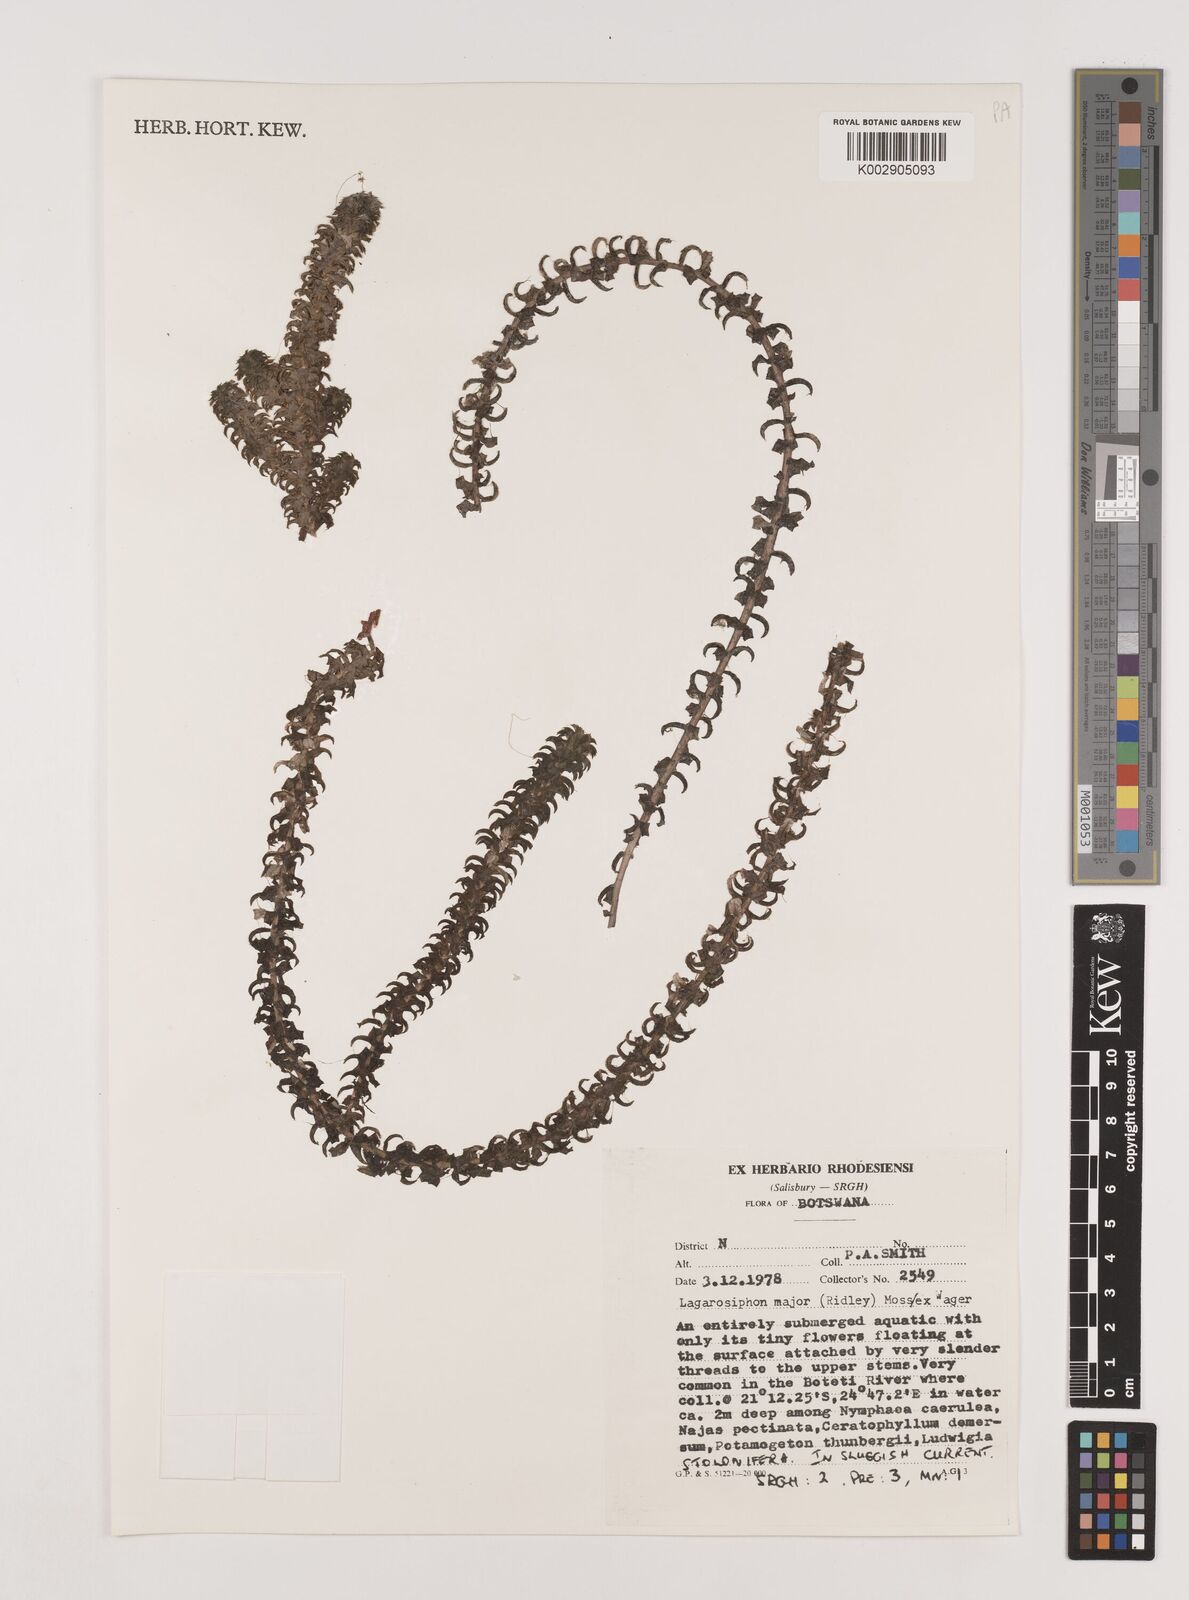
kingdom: Plantae
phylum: Tracheophyta
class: Liliopsida
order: Alismatales
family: Hydrocharitaceae
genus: Lagarosiphon
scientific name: Lagarosiphon major
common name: Curly waterweed
